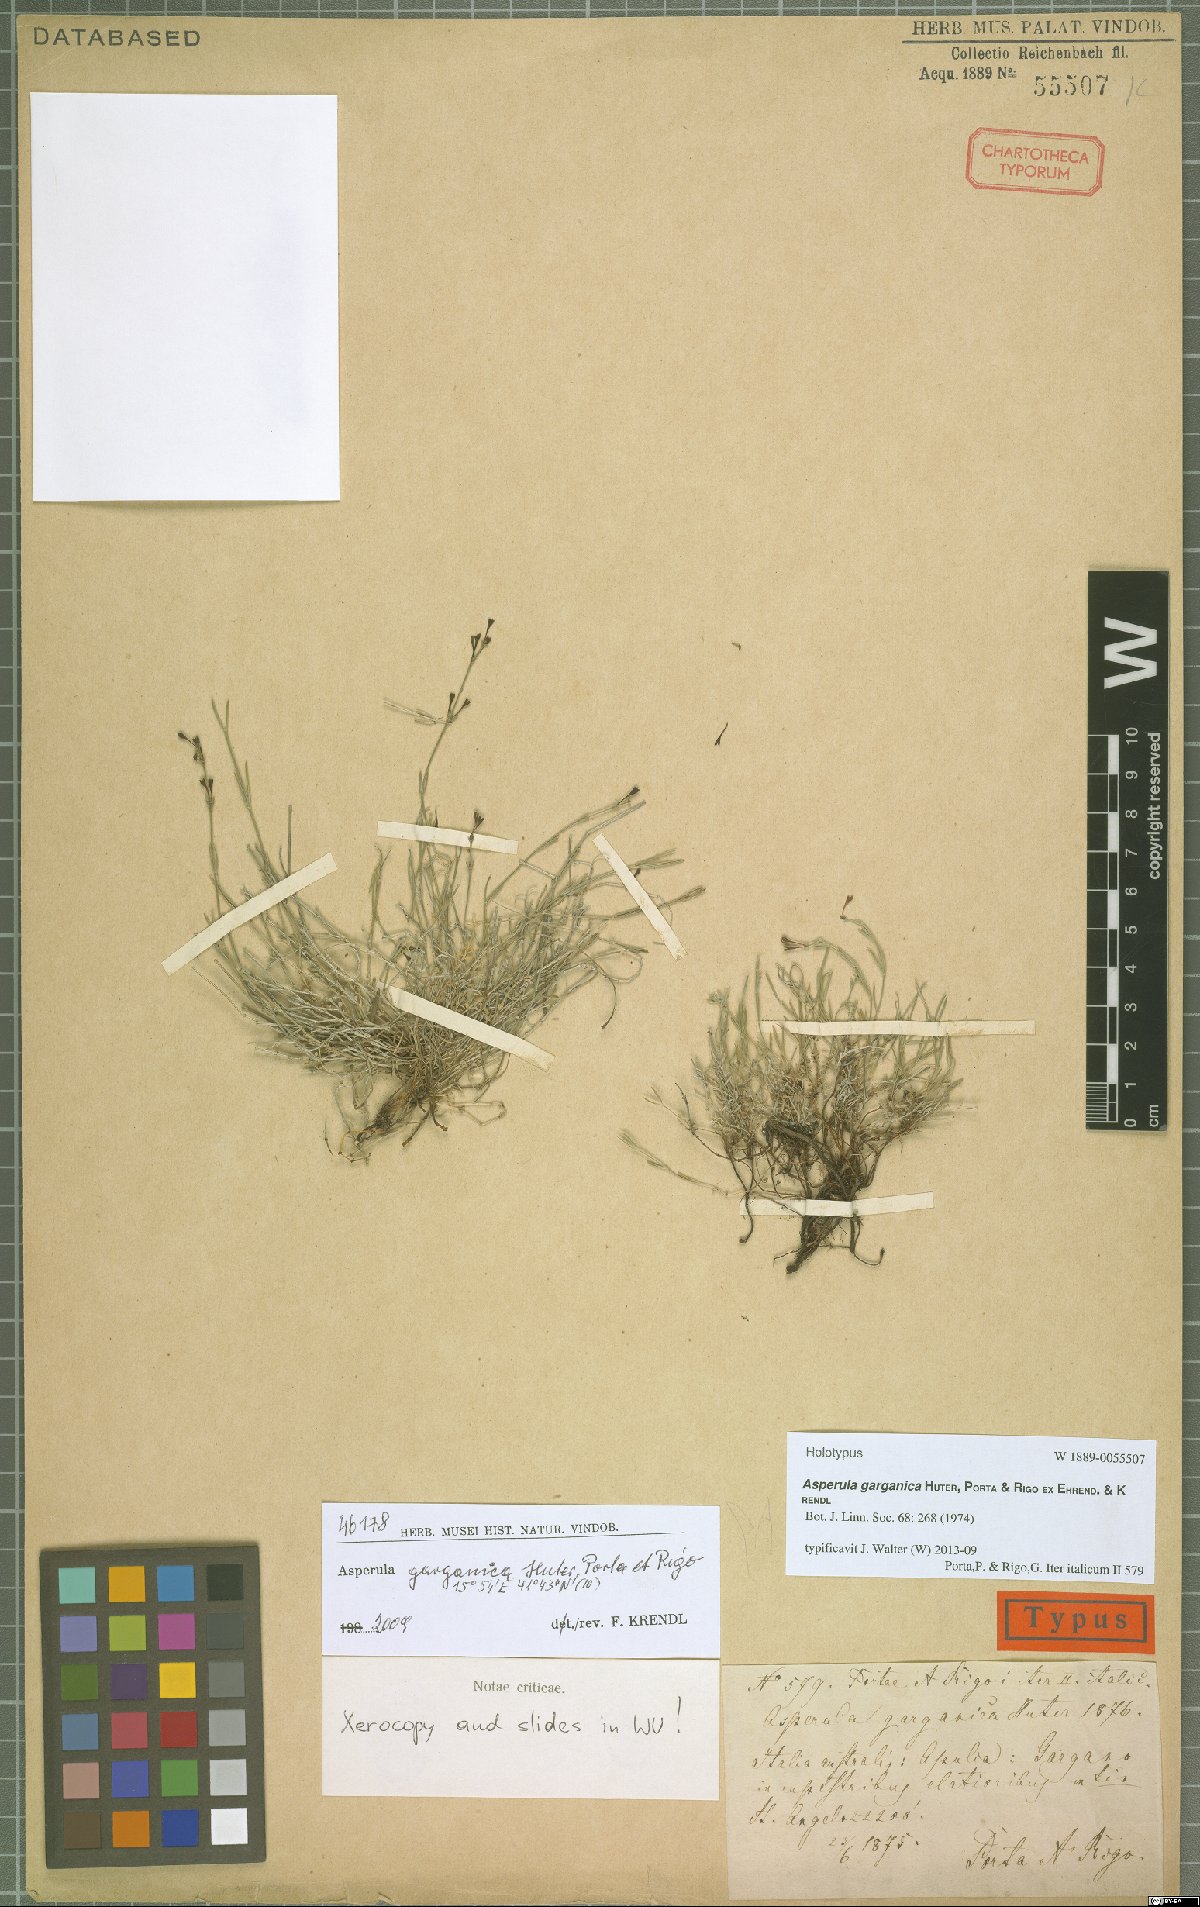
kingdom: Plantae
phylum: Tracheophyta
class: Magnoliopsida
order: Gentianales
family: Rubiaceae
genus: Cynanchica
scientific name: Cynanchica garganica
